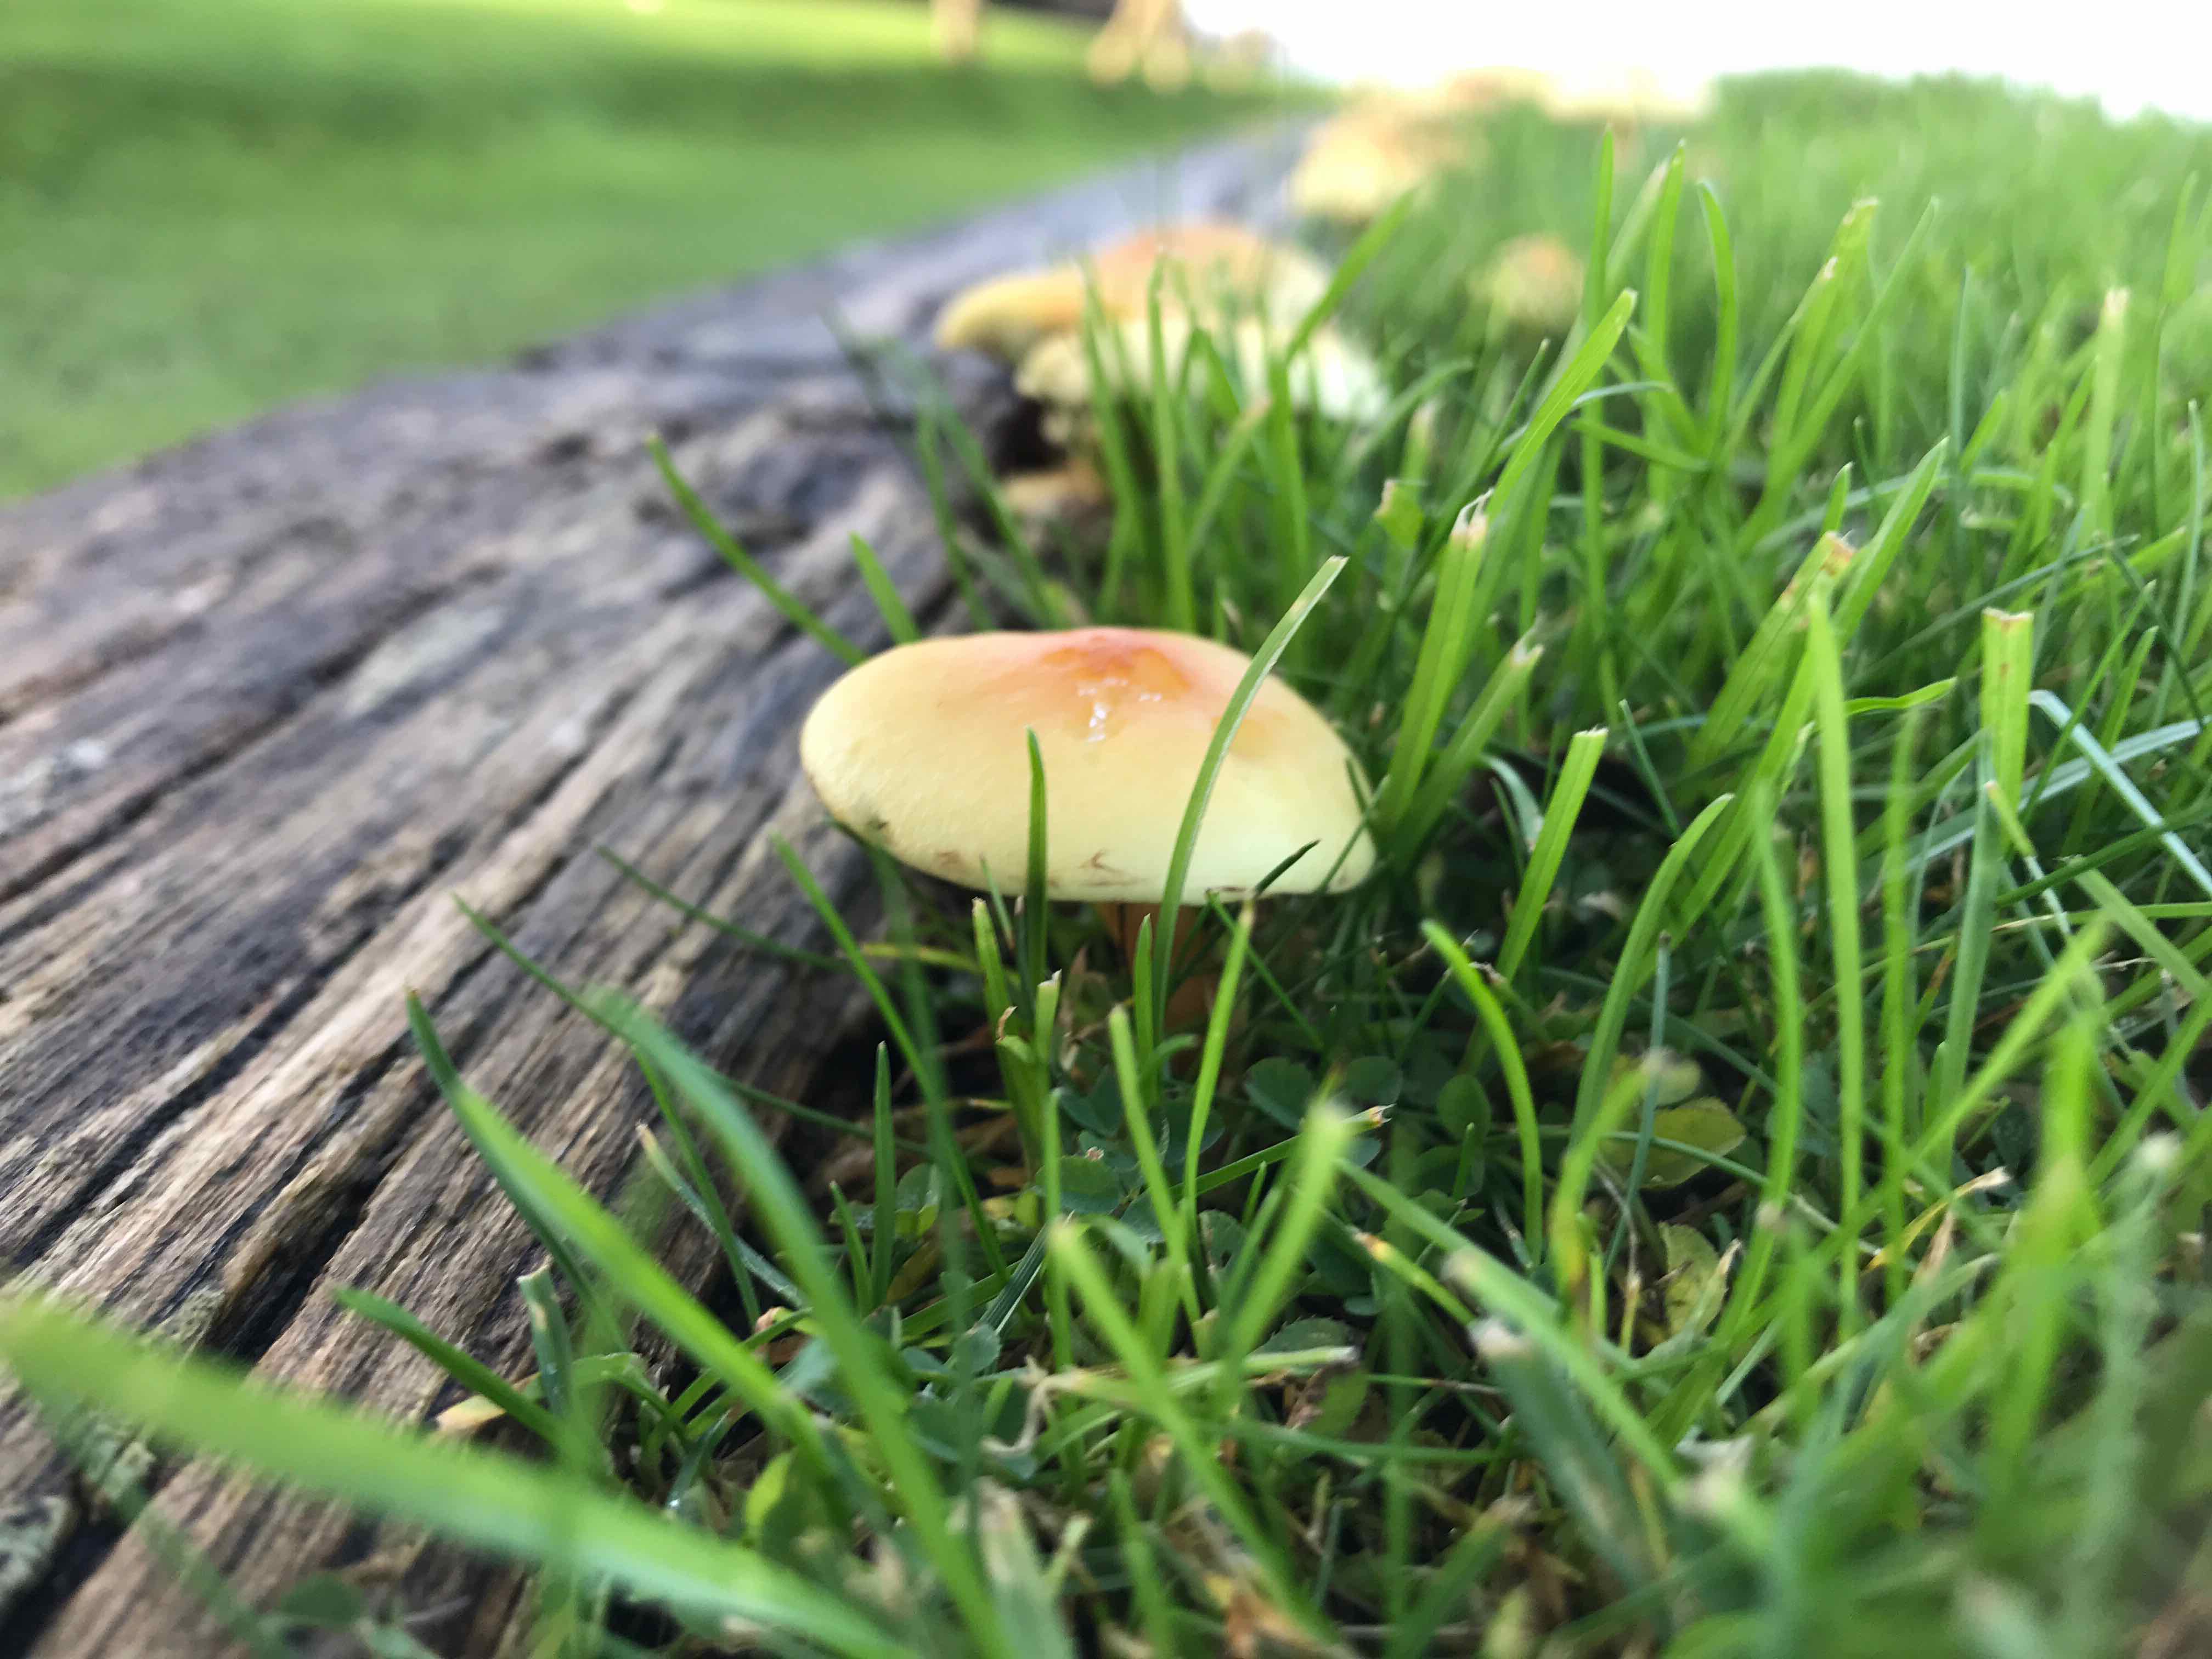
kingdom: Fungi
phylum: Basidiomycota
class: Agaricomycetes
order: Agaricales
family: Strophariaceae
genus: Hypholoma
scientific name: Hypholoma fasciculare
